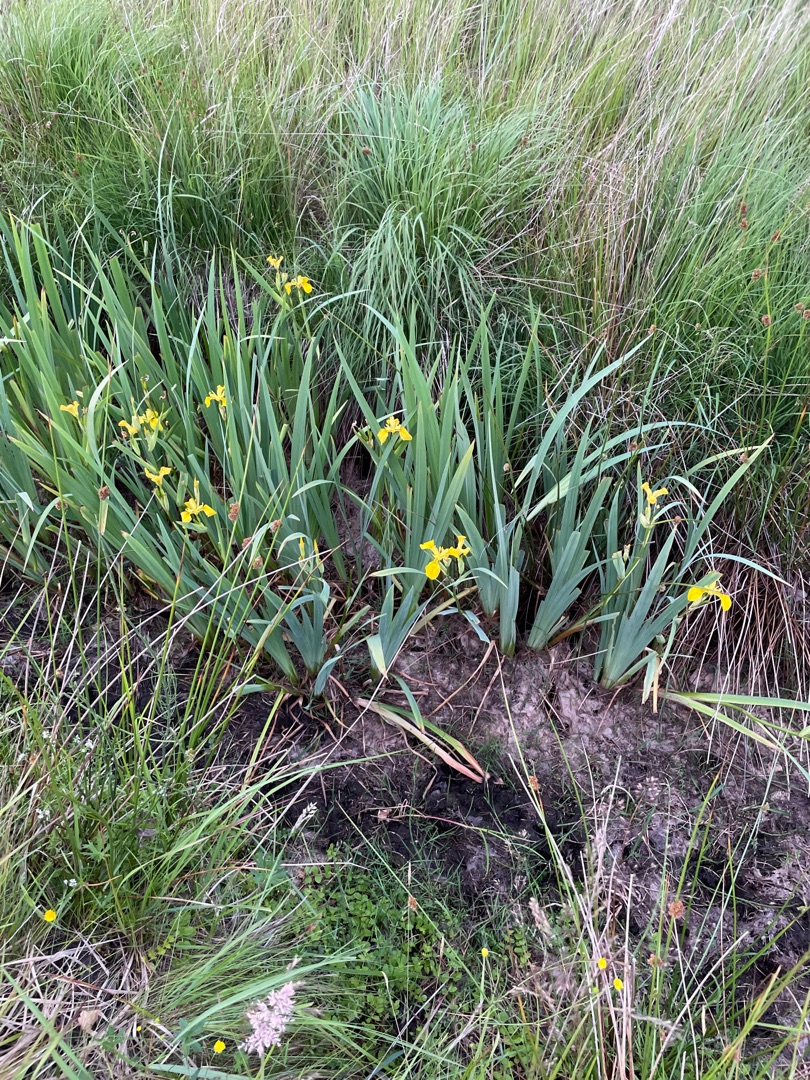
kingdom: Plantae
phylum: Tracheophyta
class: Liliopsida
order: Asparagales
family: Iridaceae
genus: Iris
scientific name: Iris pseudacorus
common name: Gul iris
